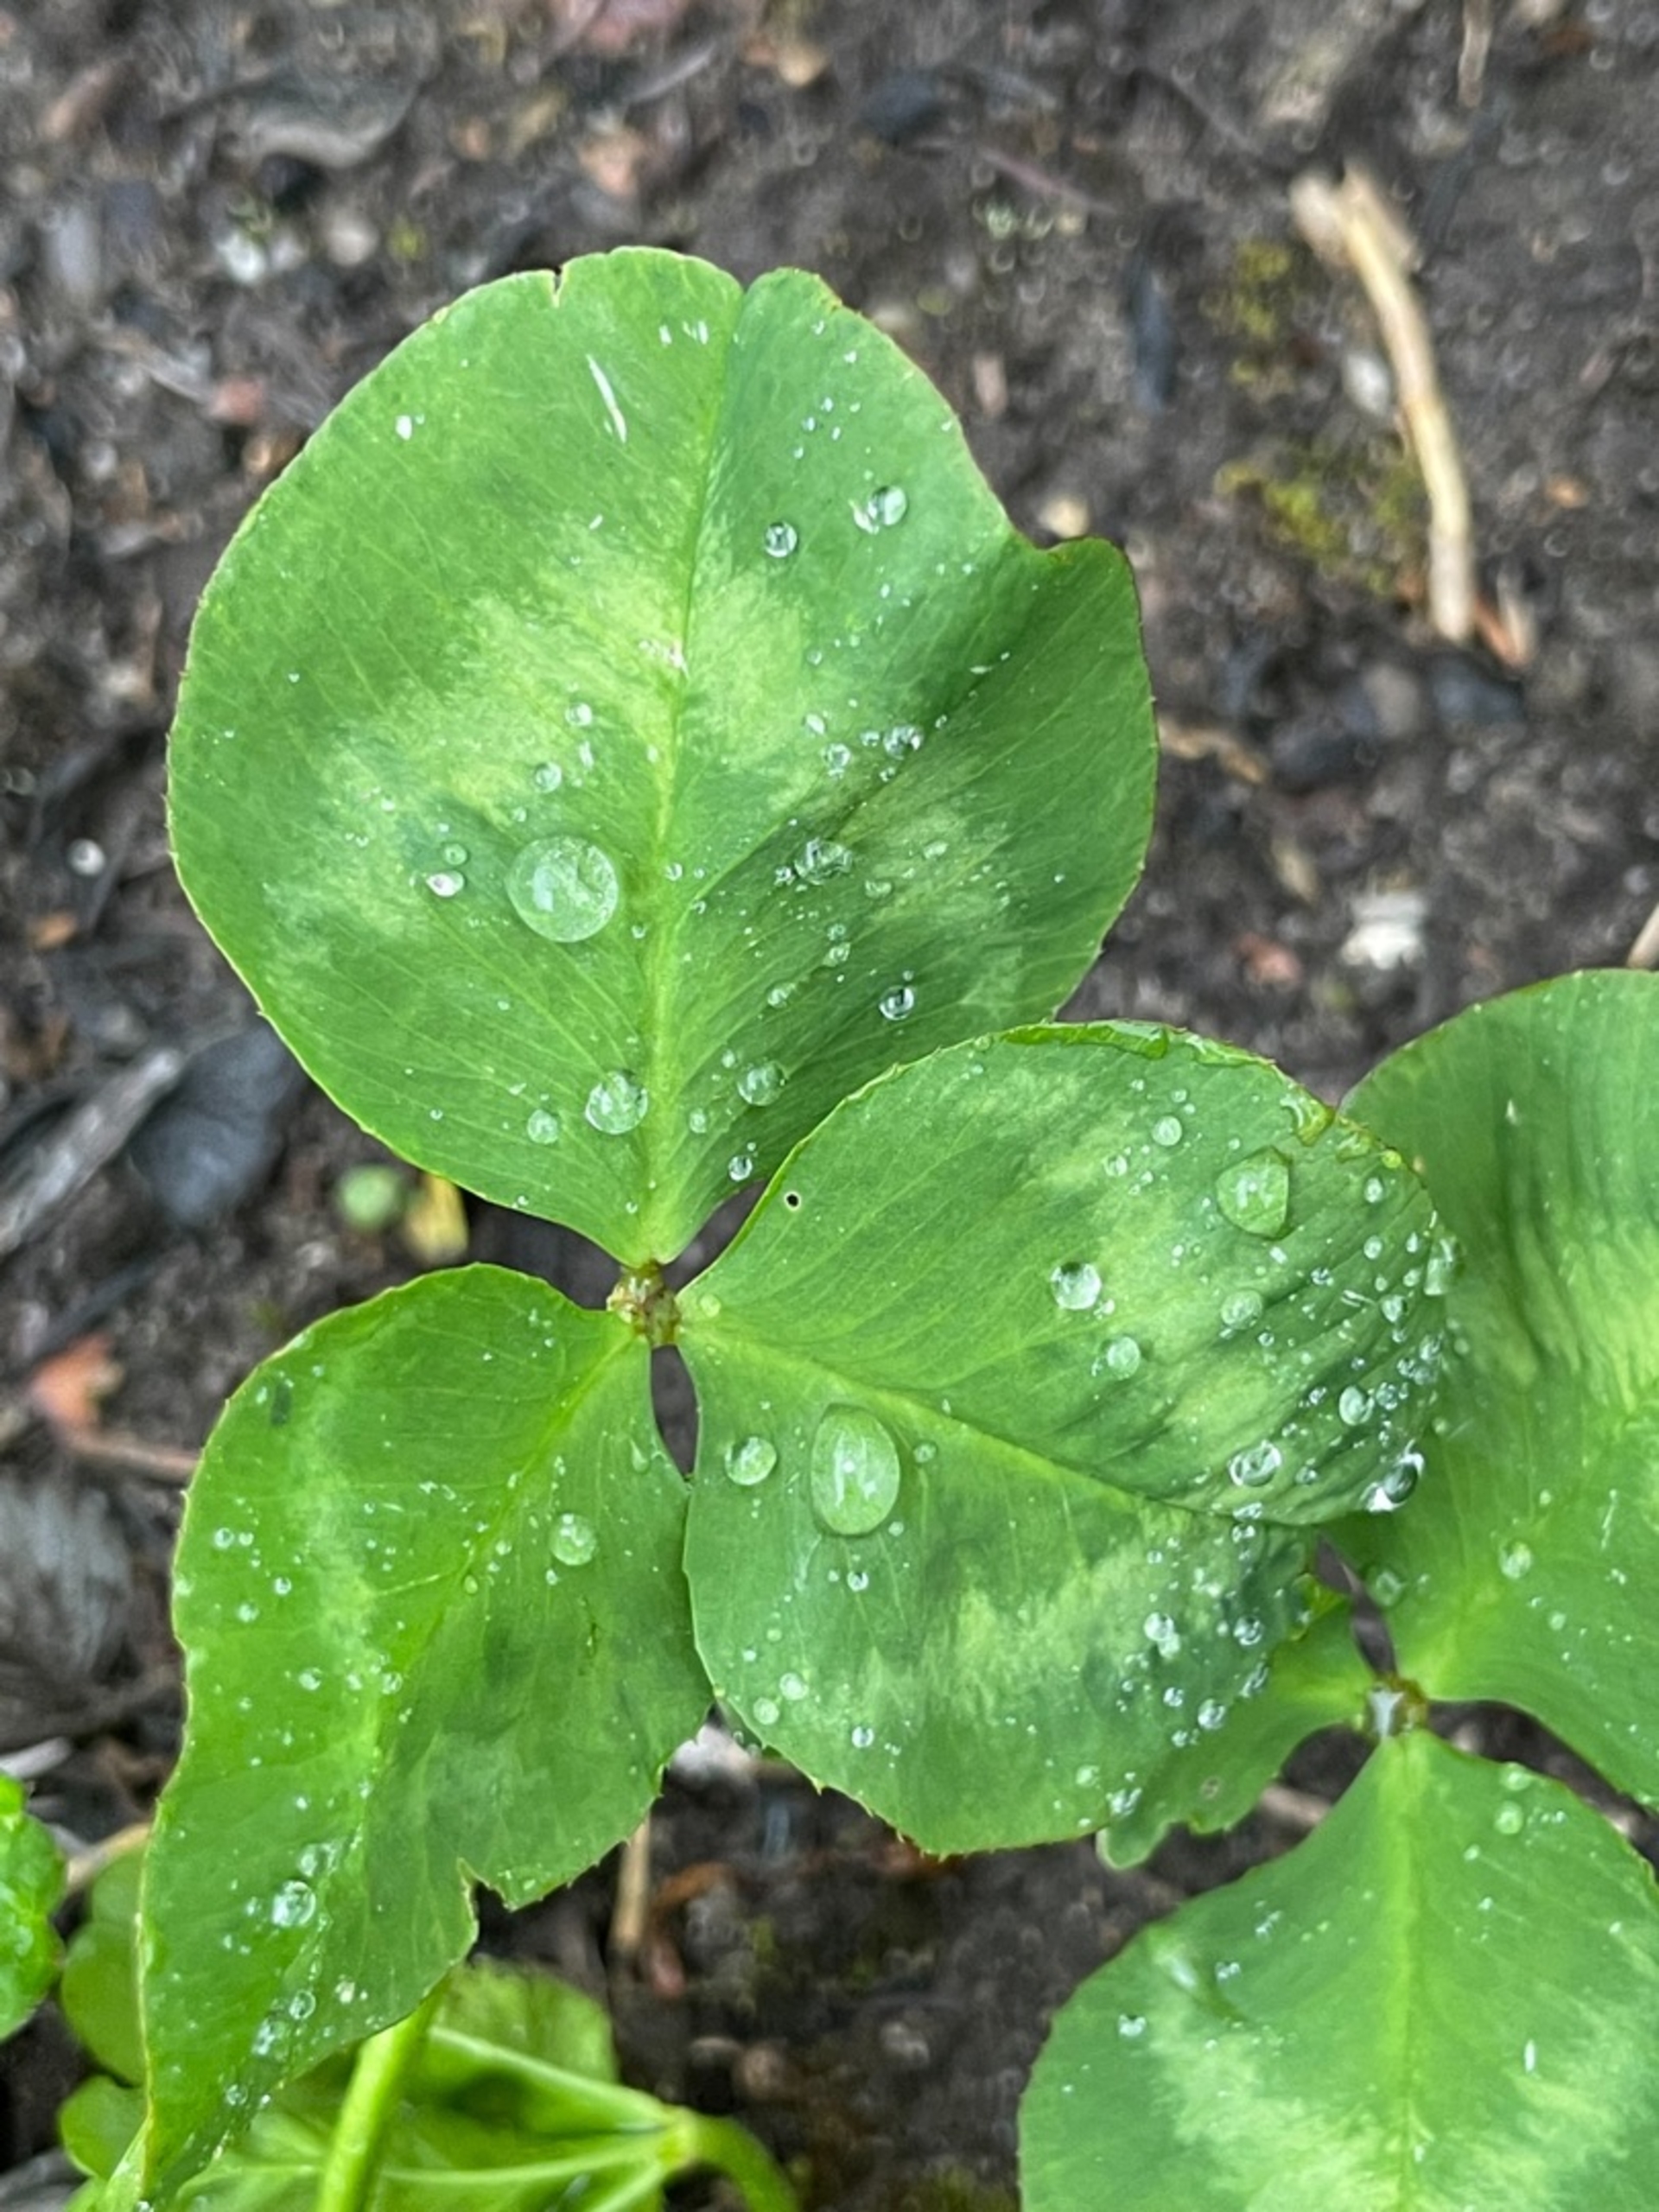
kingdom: Plantae
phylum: Tracheophyta
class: Magnoliopsida
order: Fabales
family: Fabaceae
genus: Trifolium
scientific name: Trifolium repens
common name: Hvid-kløver
